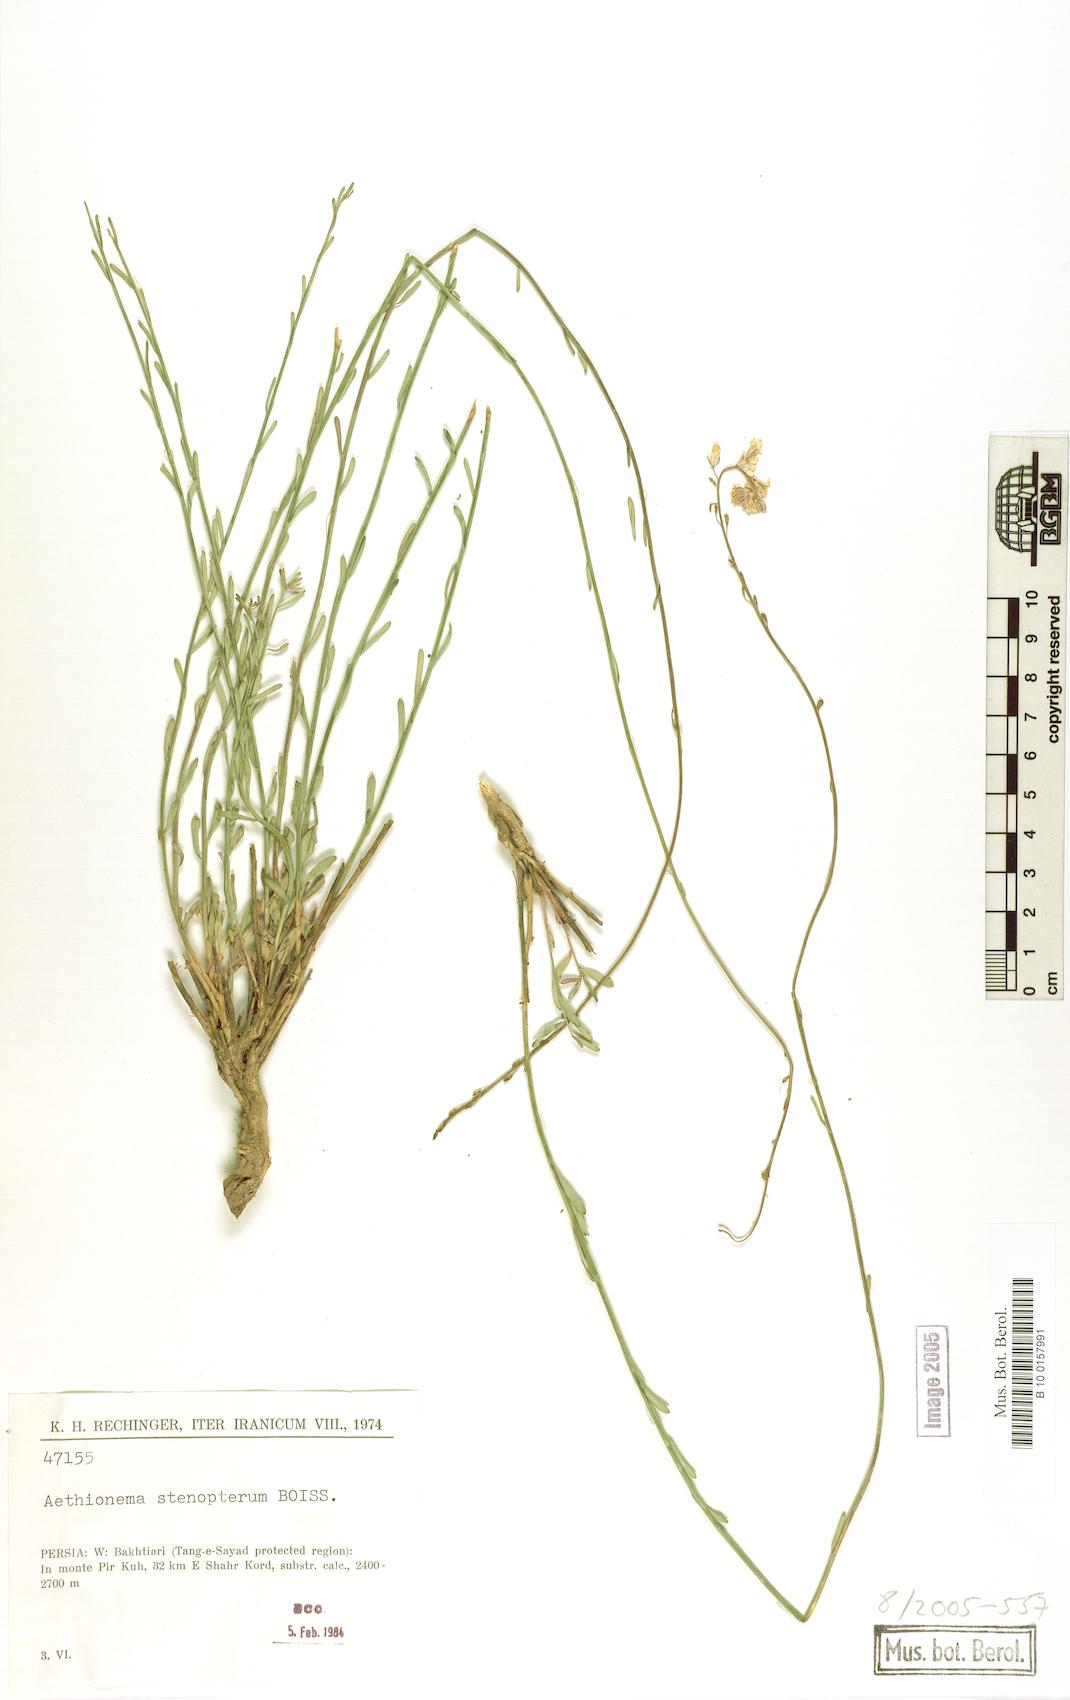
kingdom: Plantae
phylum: Tracheophyta
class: Magnoliopsida
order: Brassicales
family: Brassicaceae
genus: Aethionema
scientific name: Aethionema stenopterum
